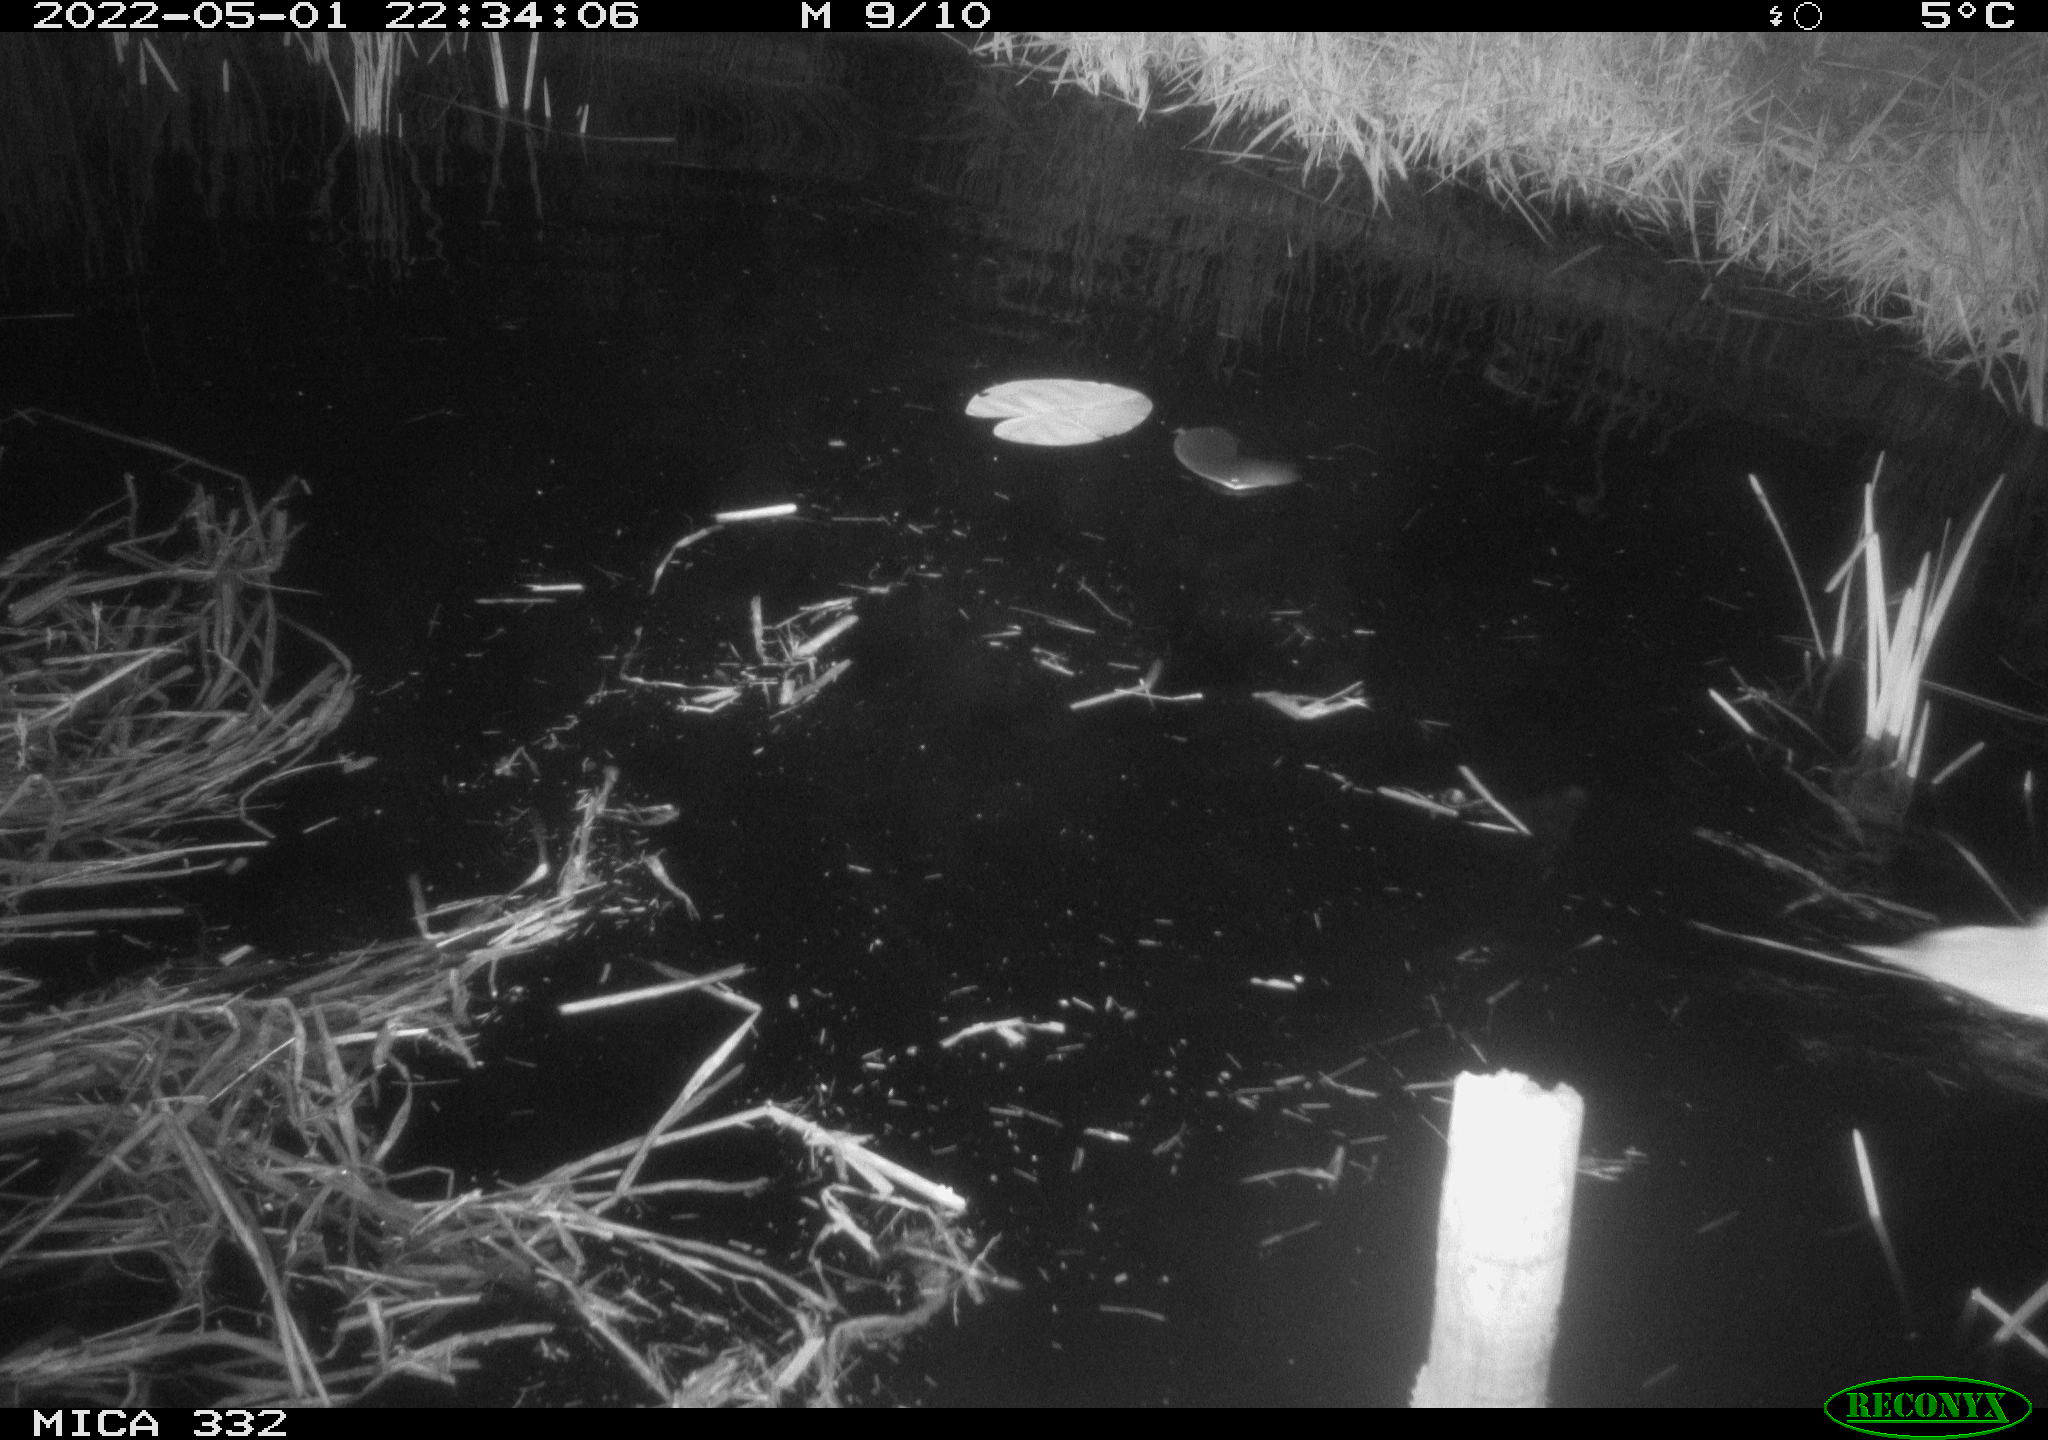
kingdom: Animalia
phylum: Chordata
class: Aves
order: Anseriformes
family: Anatidae
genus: Cygnus
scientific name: Cygnus olor
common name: Mute swan
